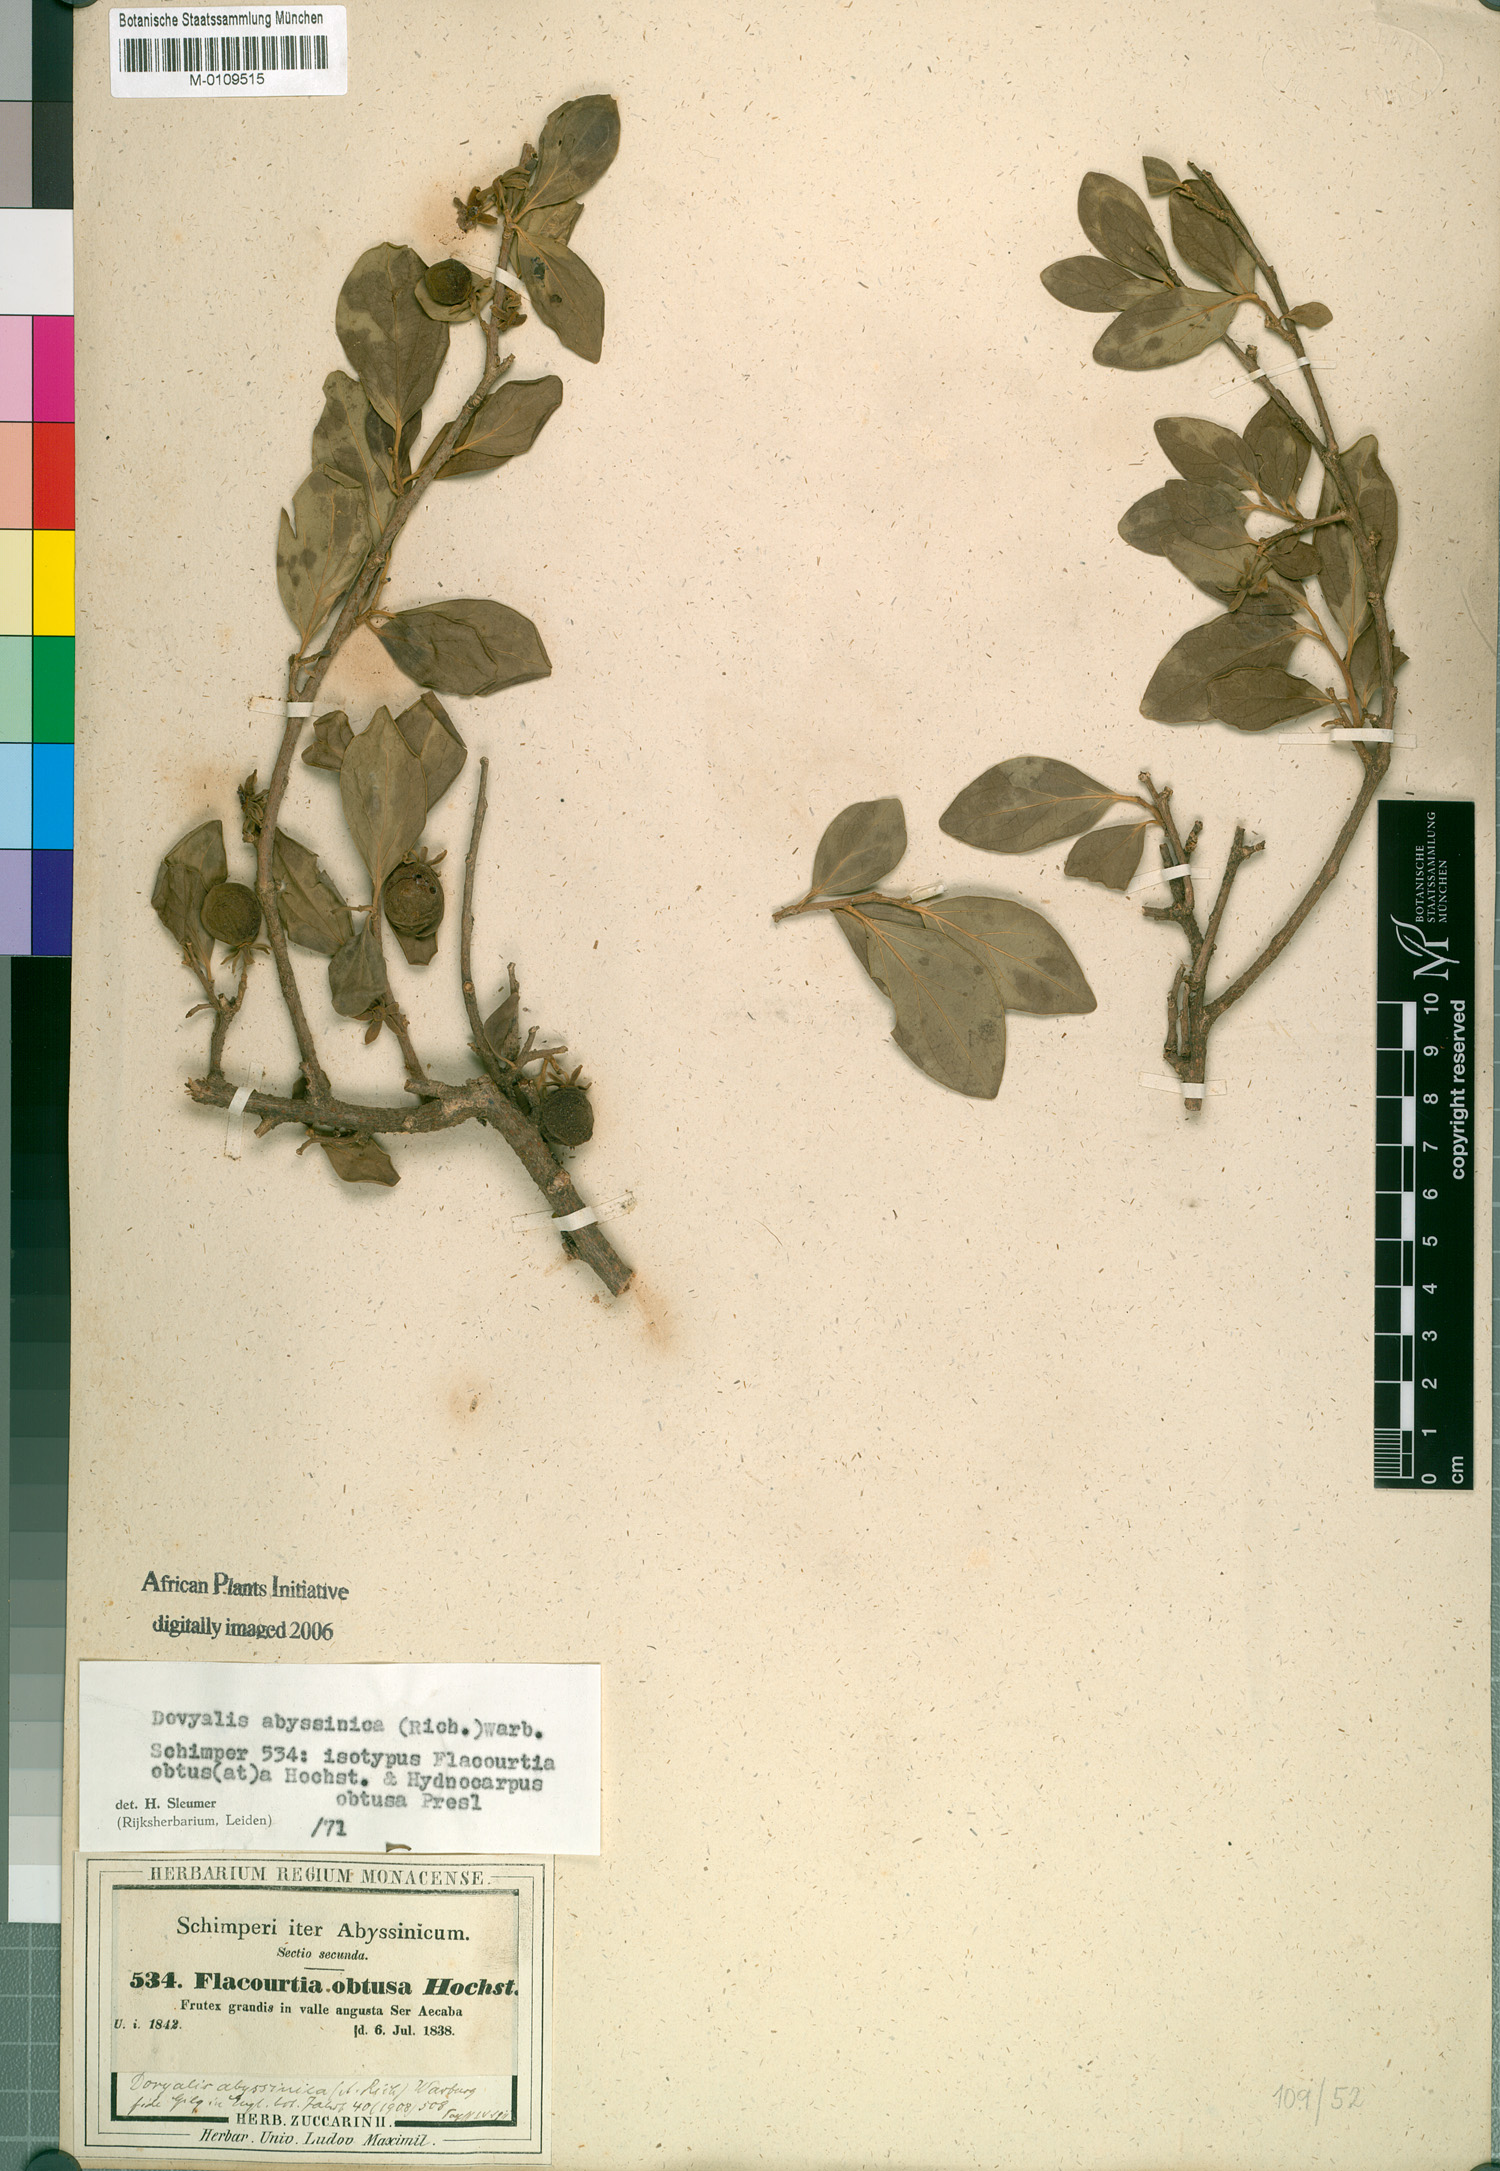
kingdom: Plantae
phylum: Tracheophyta
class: Magnoliopsida
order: Malpighiales
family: Salicaceae
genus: Dovyalis
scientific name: Dovyalis abyssinica
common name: Abyssinian-gooseberry
